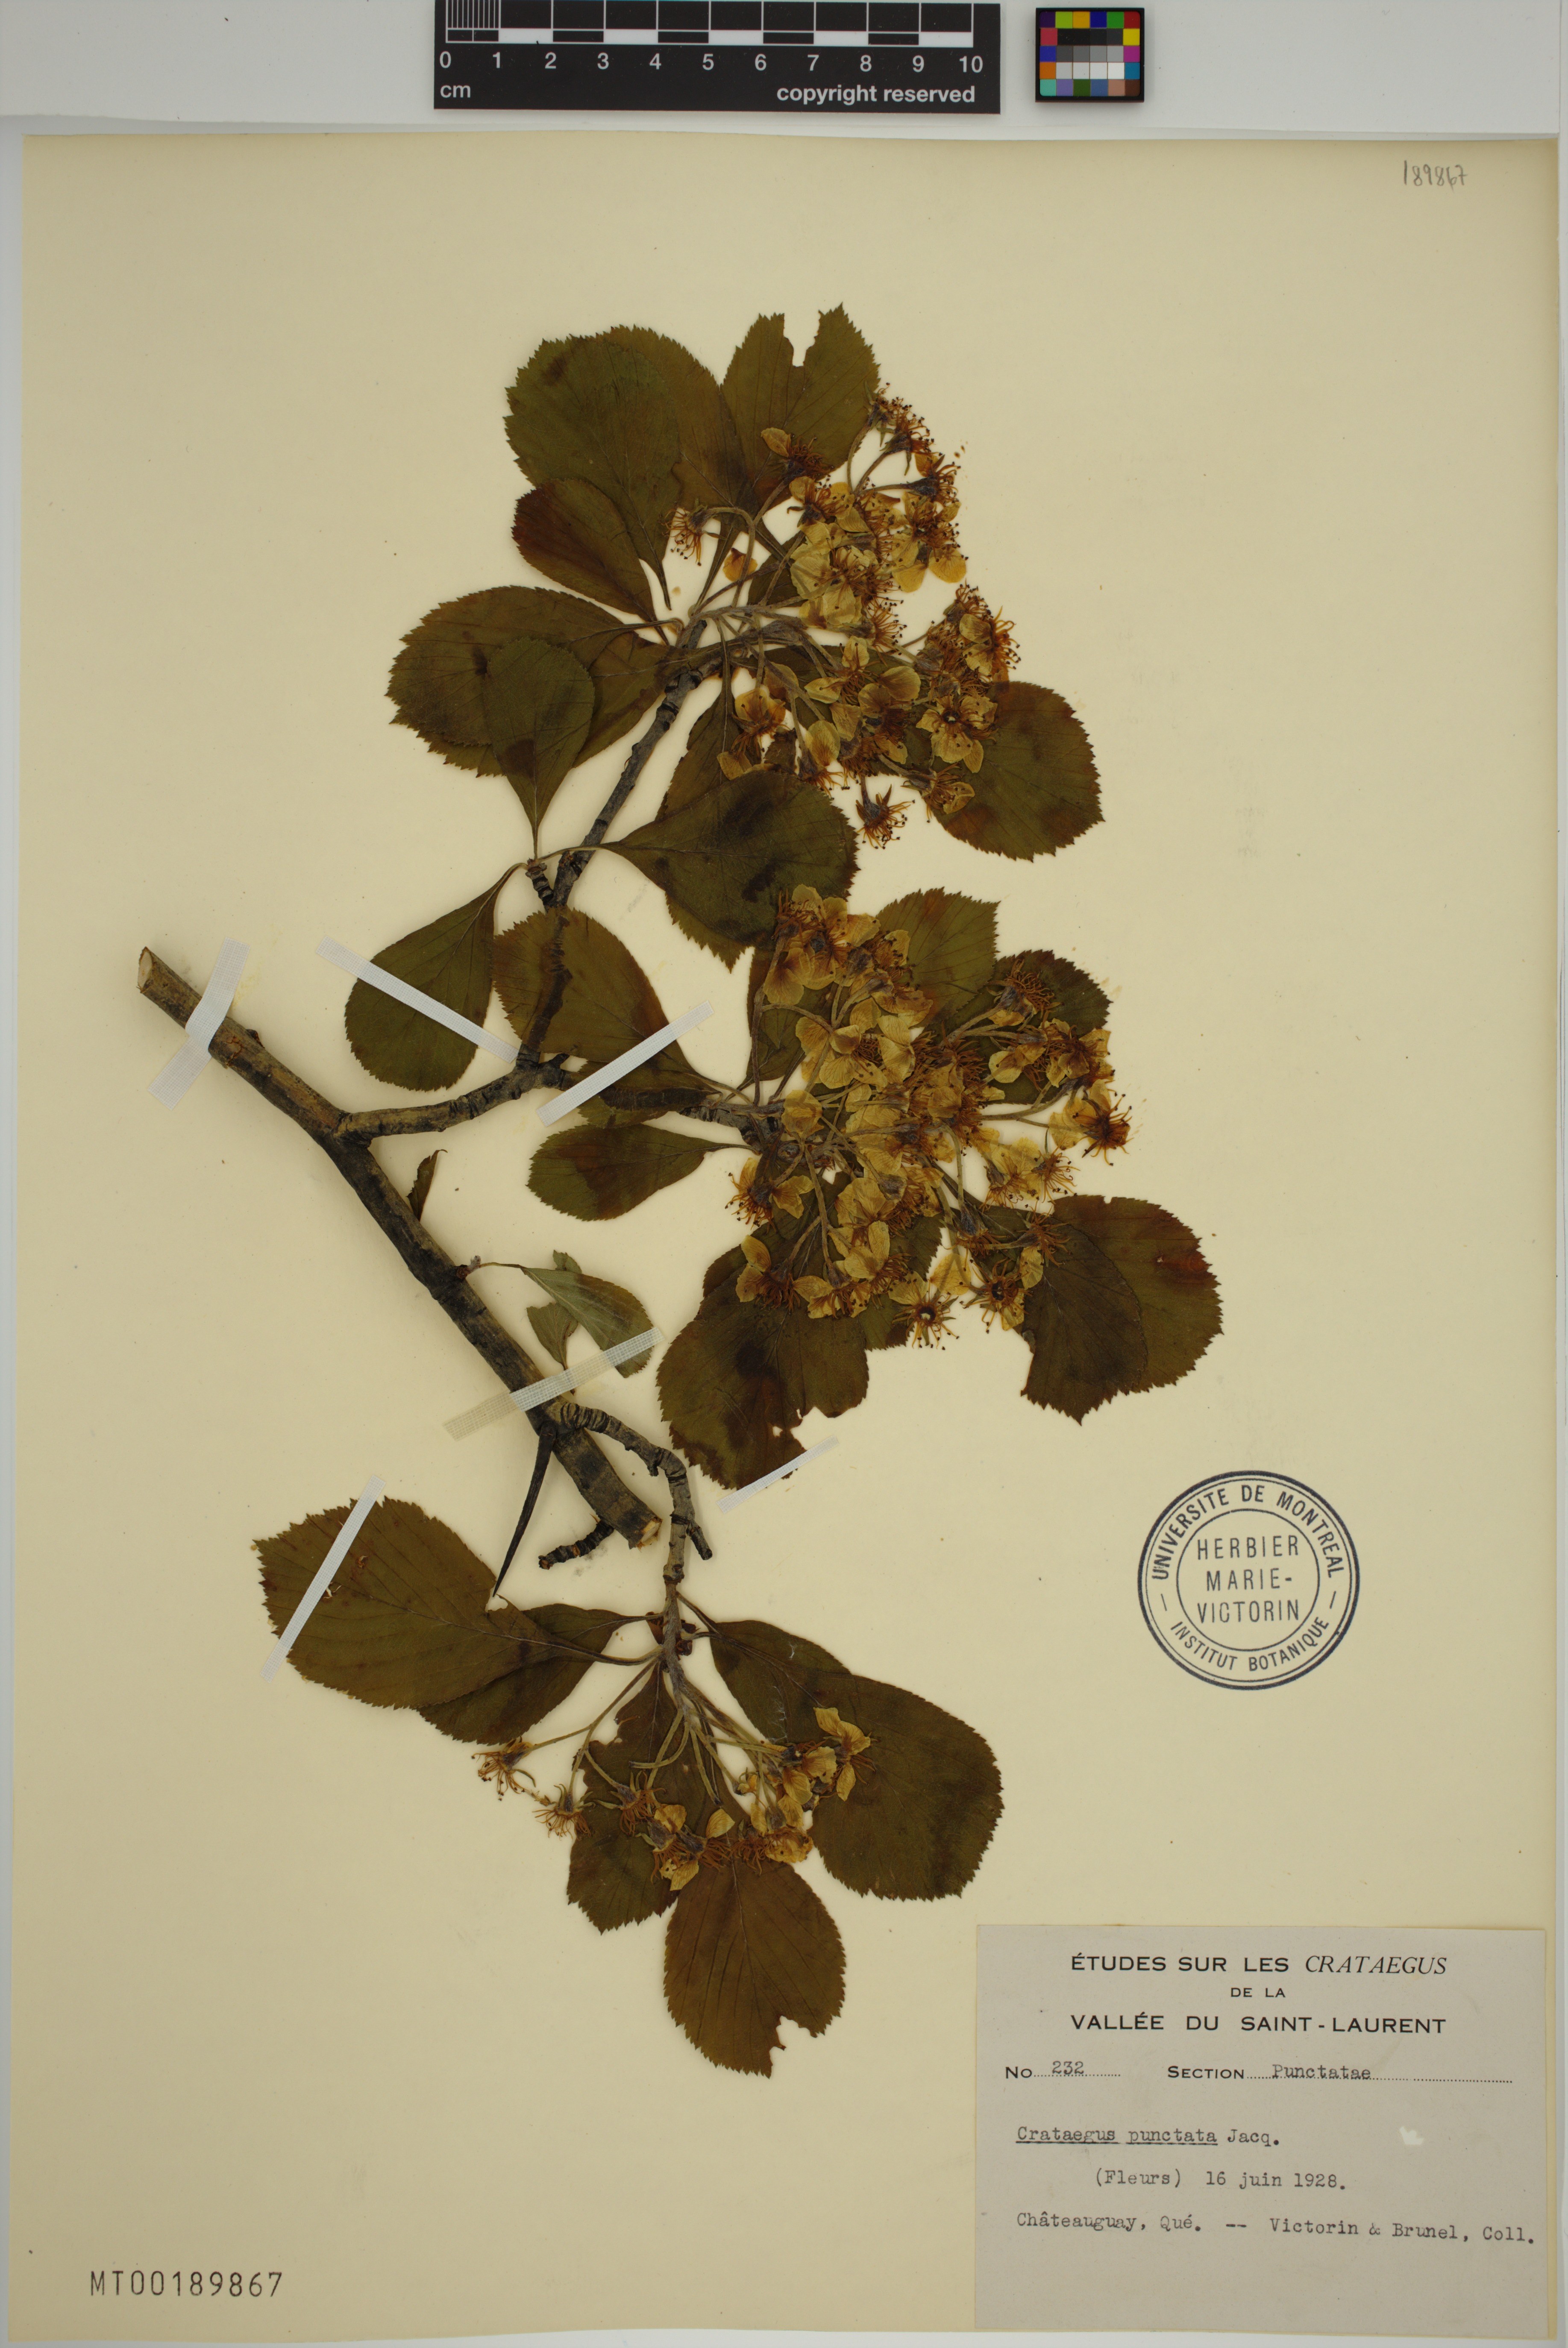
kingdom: Plantae
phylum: Tracheophyta
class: Magnoliopsida
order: Rosales
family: Rosaceae
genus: Crataegus
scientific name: Crataegus punctata
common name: Dotted hawthorn
